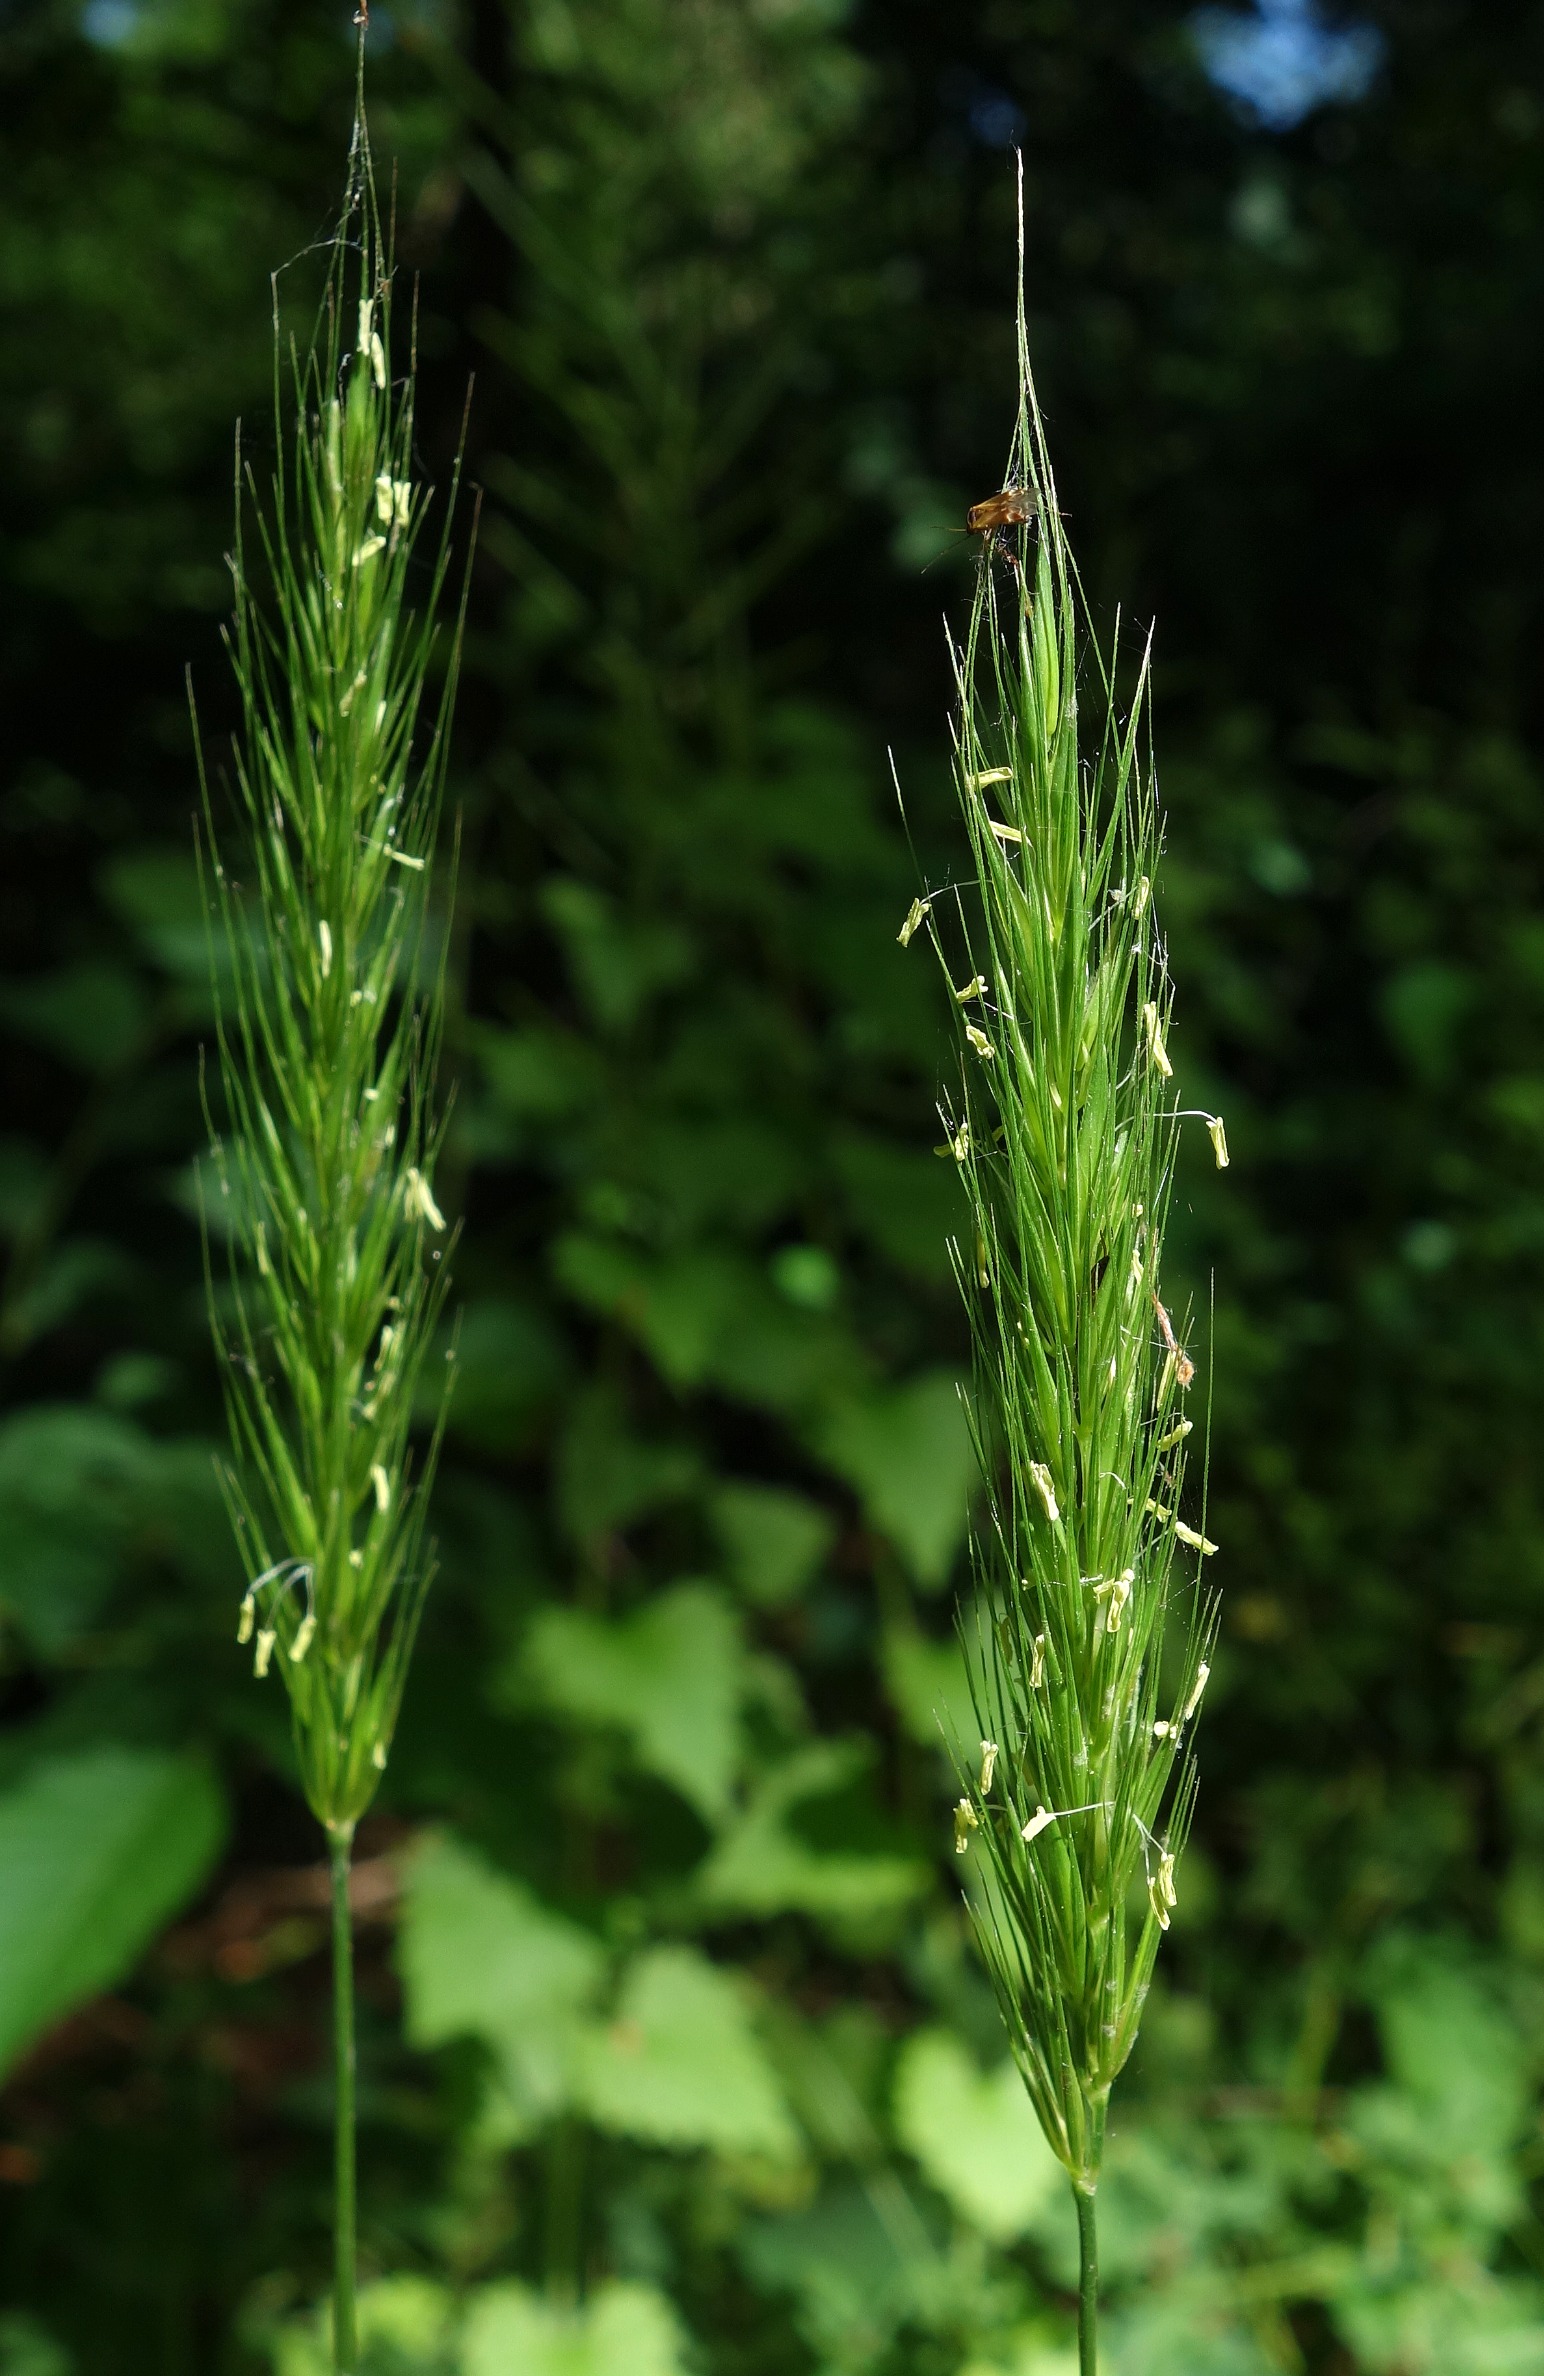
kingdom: Plantae
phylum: Tracheophyta
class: Liliopsida
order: Poales
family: Poaceae
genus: Hordelymus
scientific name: Hordelymus europaeus
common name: Skovbyg
